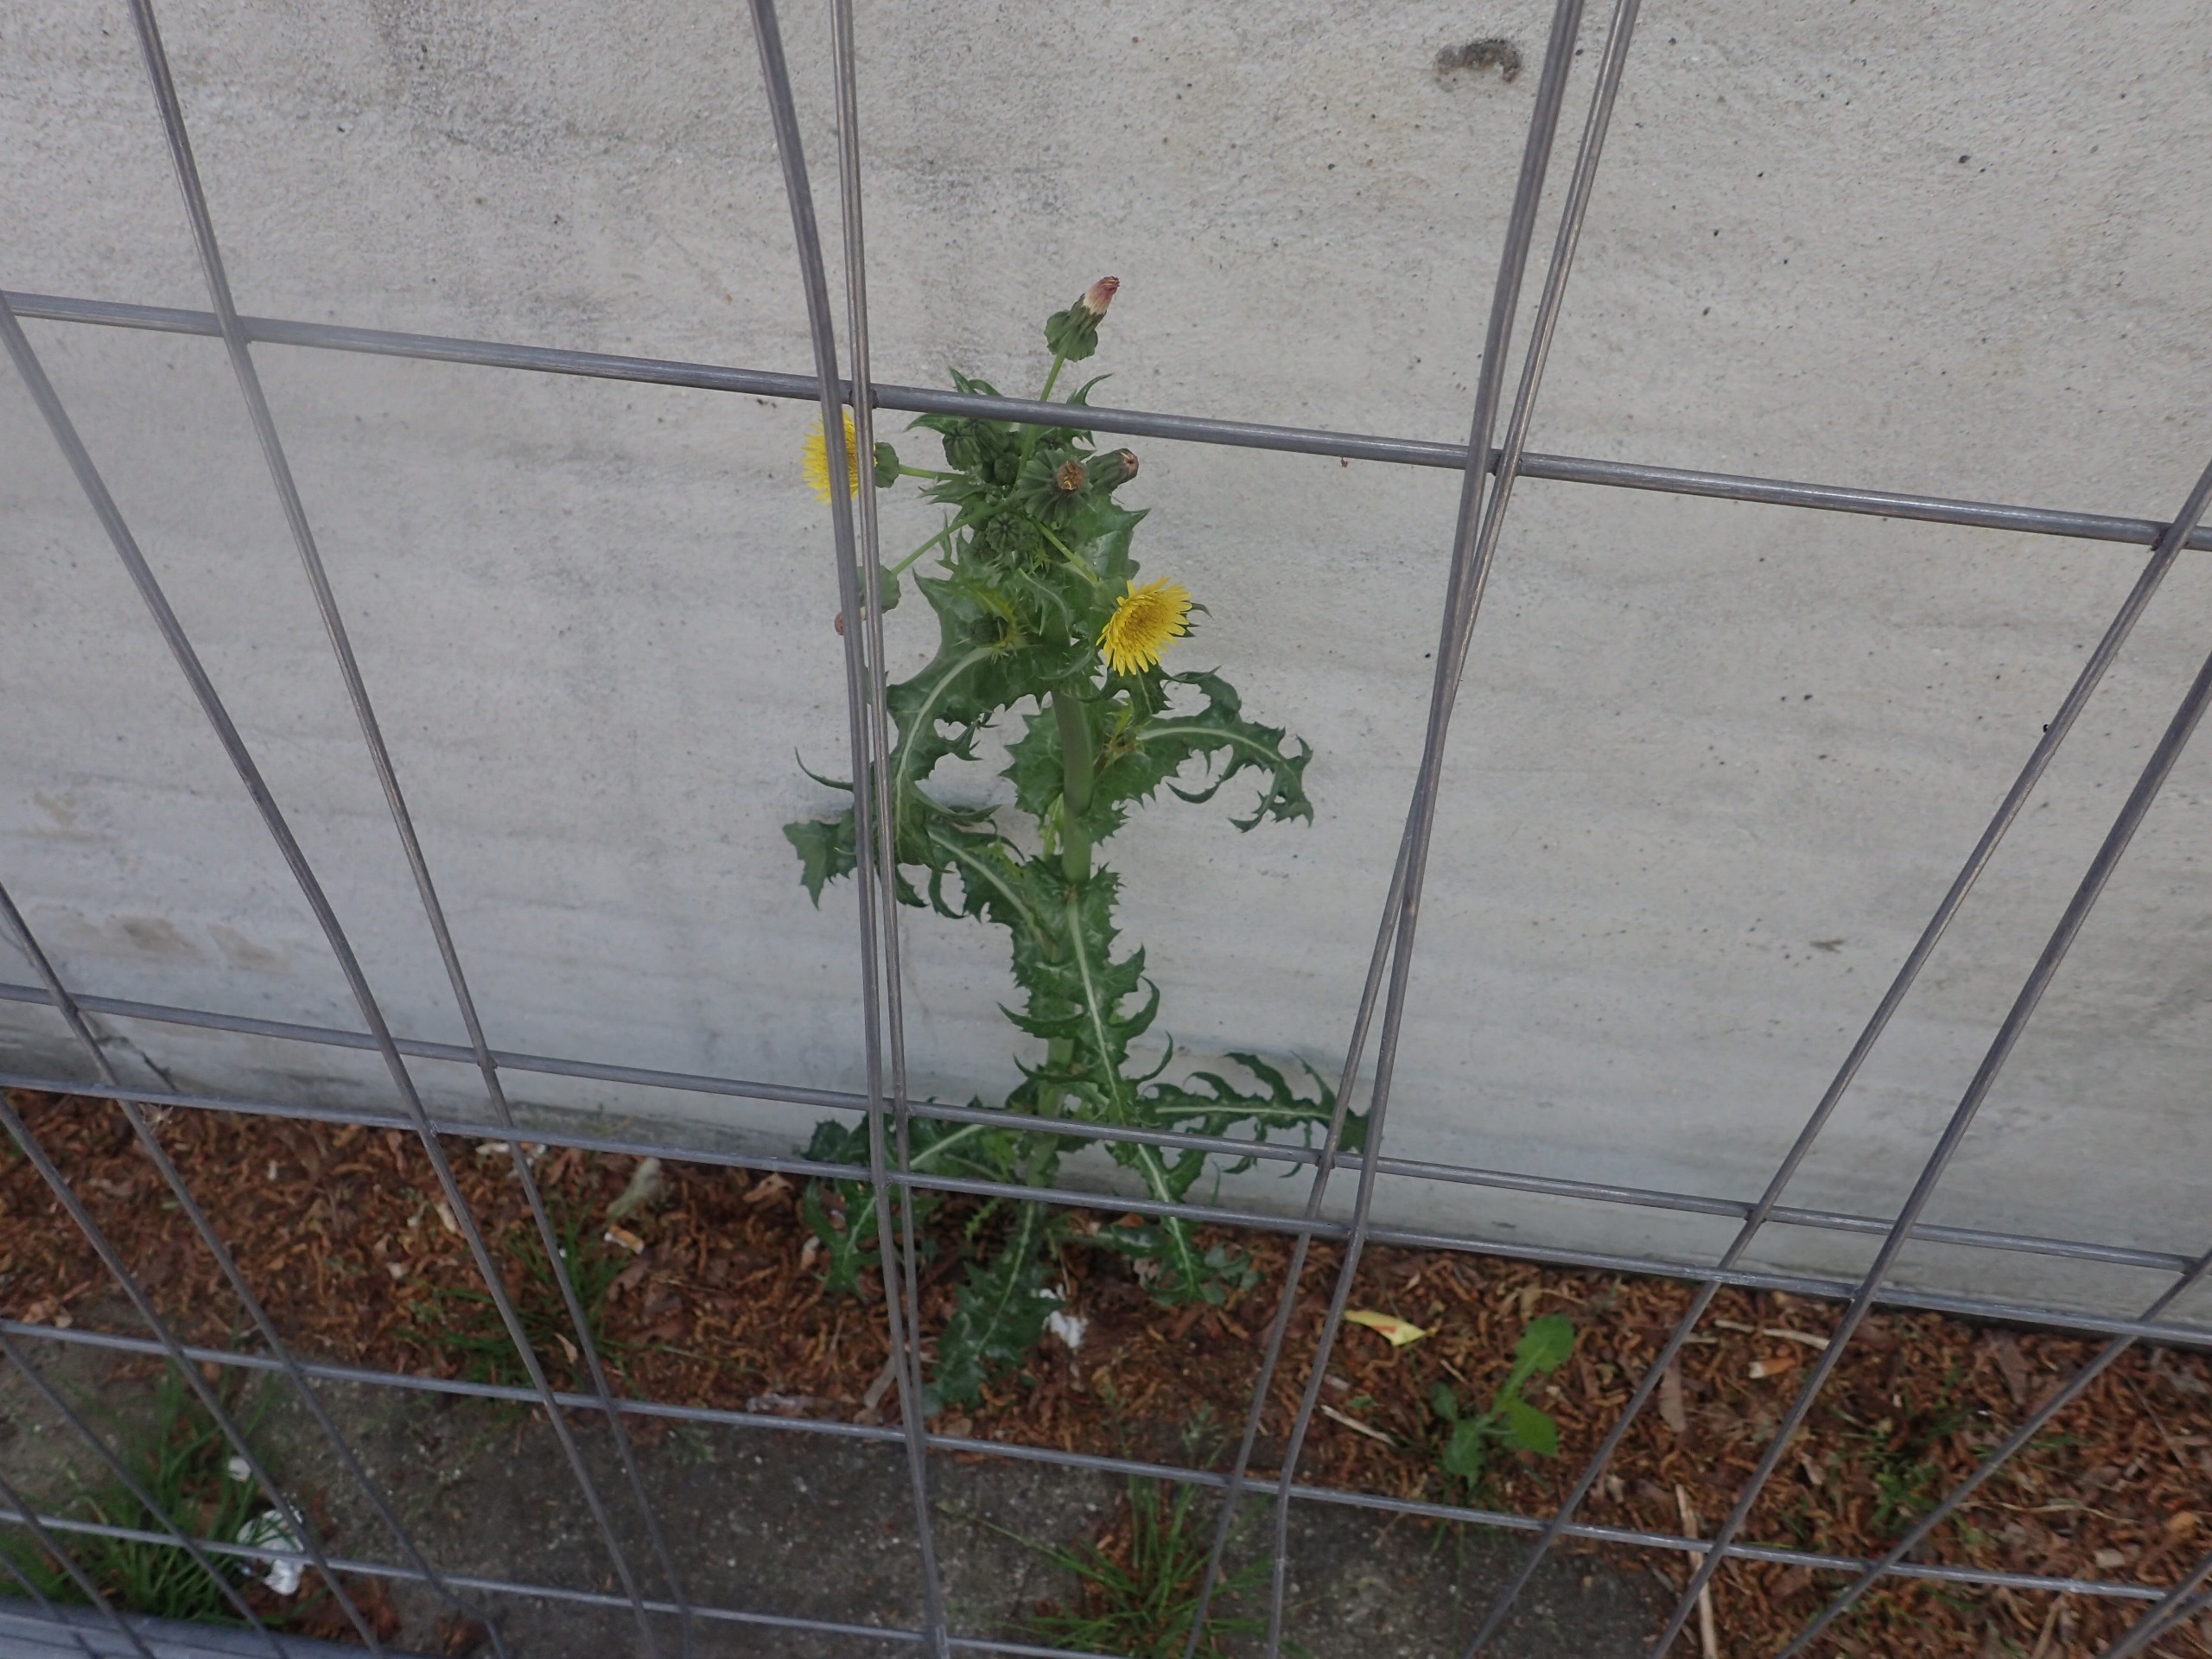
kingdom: Plantae
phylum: Tracheophyta
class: Magnoliopsida
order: Asterales
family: Asteraceae
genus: Sonchus
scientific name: Sonchus asper
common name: Ru svinemælk
